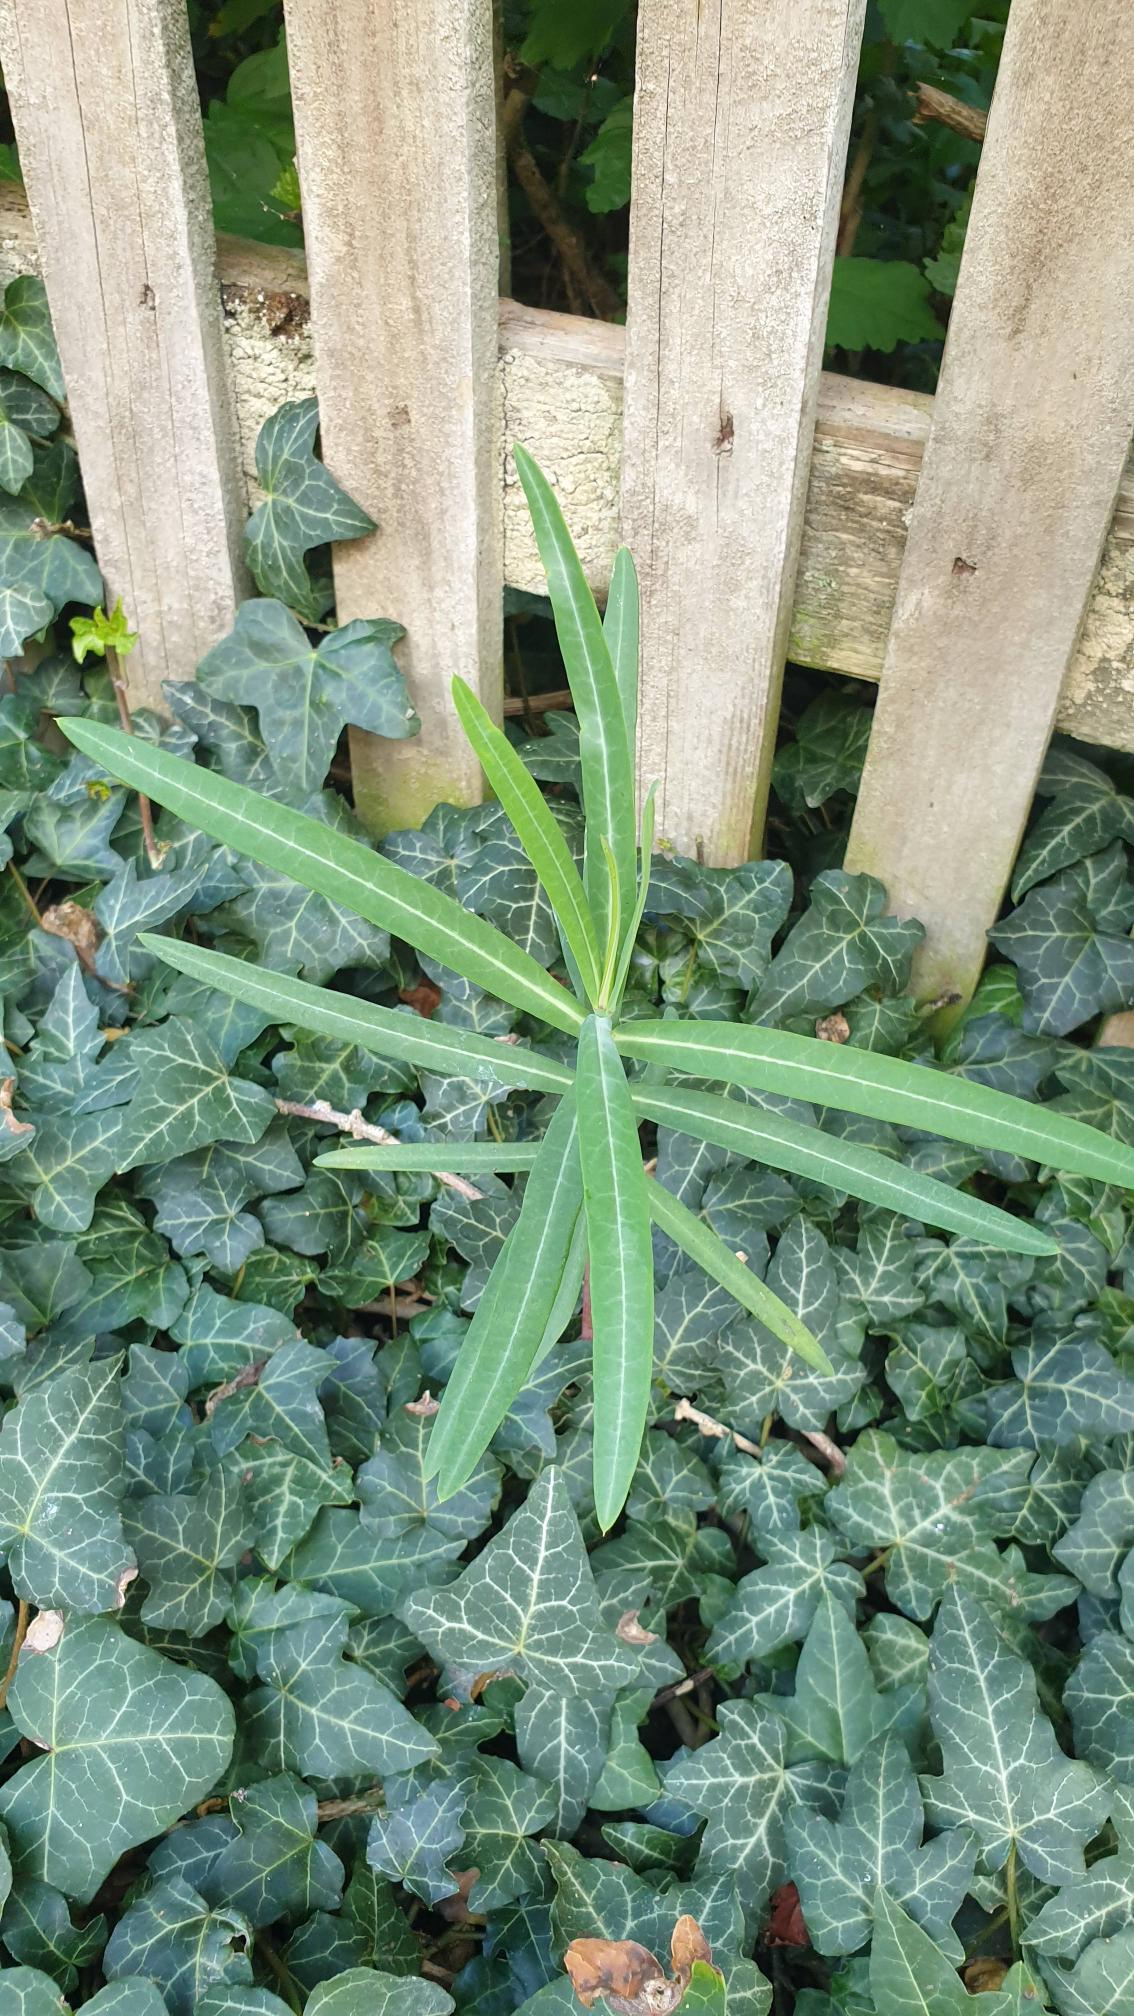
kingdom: Plantae
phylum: Tracheophyta
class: Magnoliopsida
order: Malpighiales
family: Euphorbiaceae
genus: Euphorbia
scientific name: Euphorbia lathyris
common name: Kors-vortemælk
